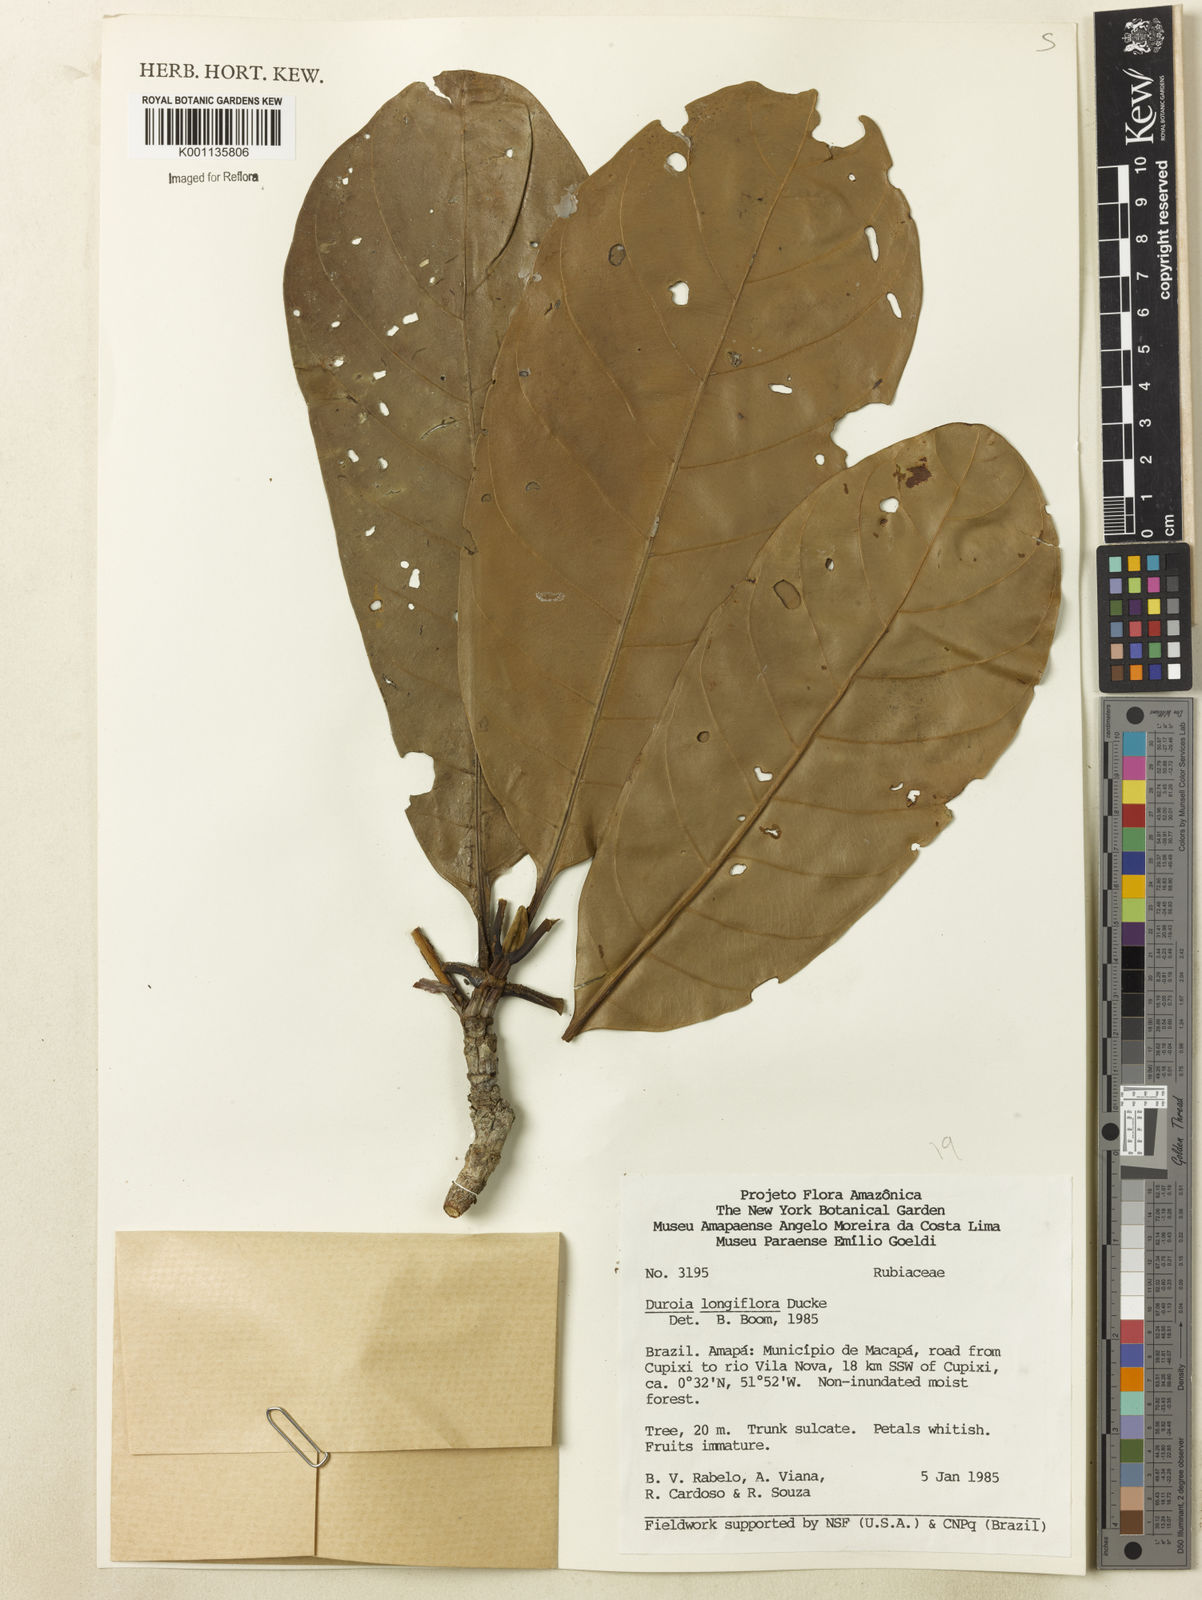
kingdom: Plantae
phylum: Tracheophyta
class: Magnoliopsida
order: Gentianales
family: Rubiaceae
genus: Duroia
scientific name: Duroia longiflora
